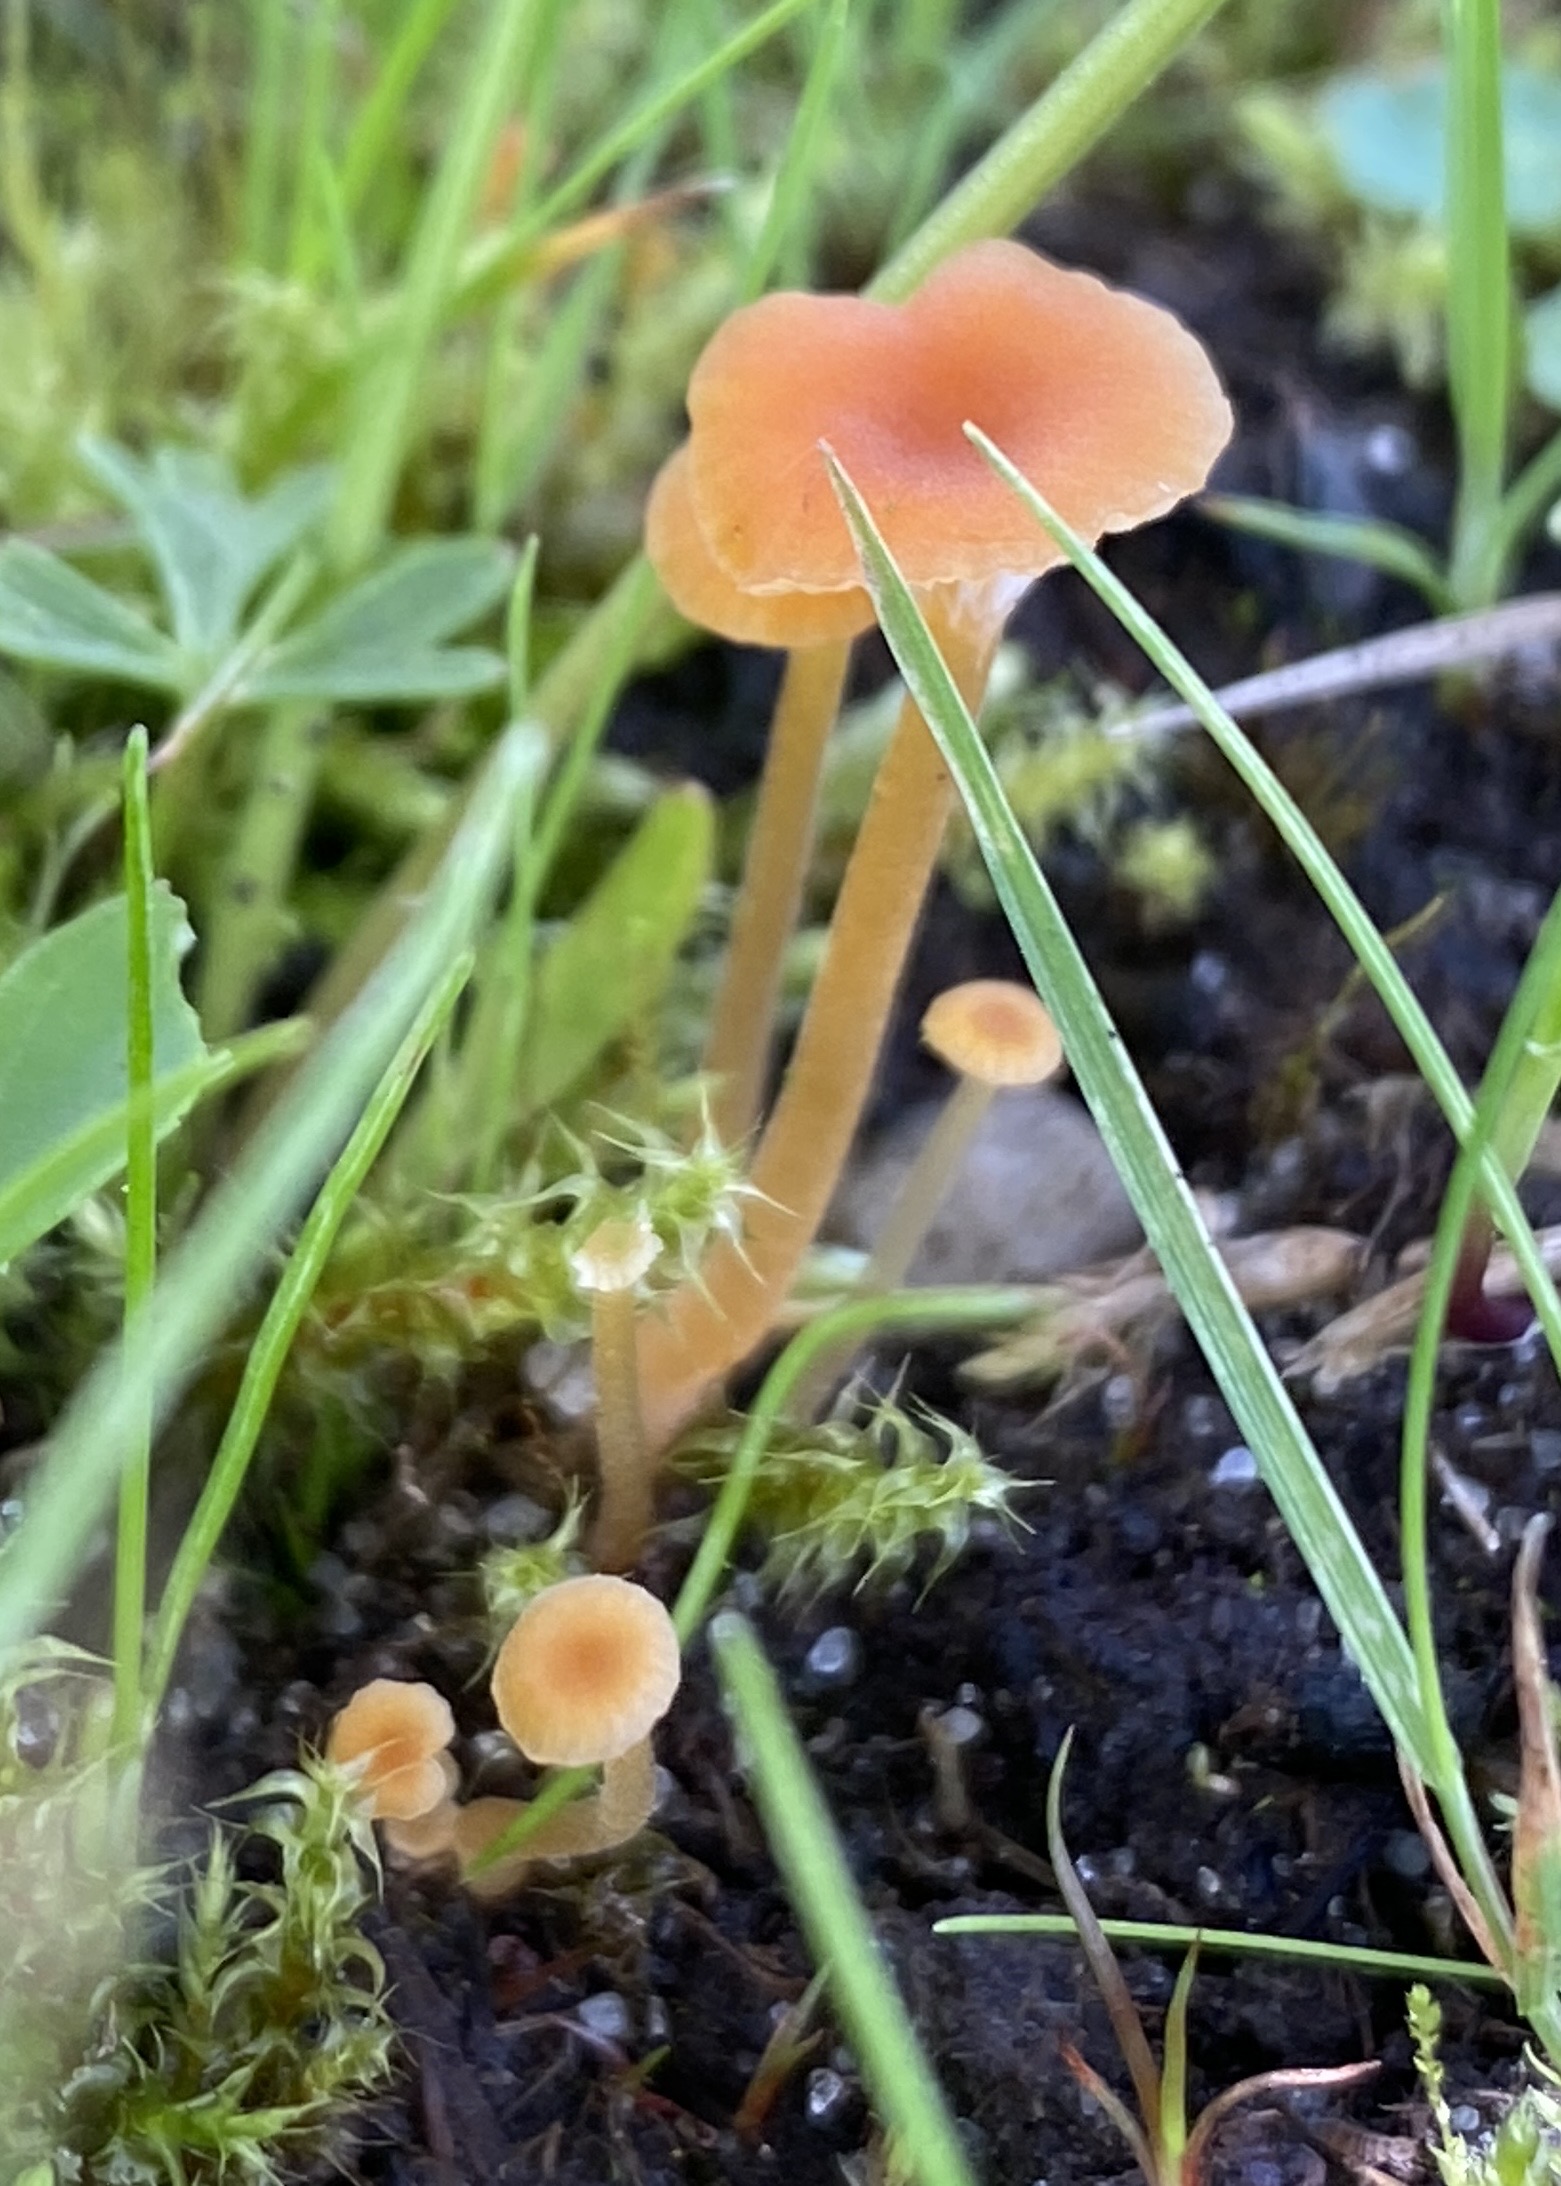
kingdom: Fungi
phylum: Basidiomycota
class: Agaricomycetes
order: Hymenochaetales
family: Rickenellaceae
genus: Rickenella
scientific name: Rickenella fibula
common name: orange mosnavlehat
